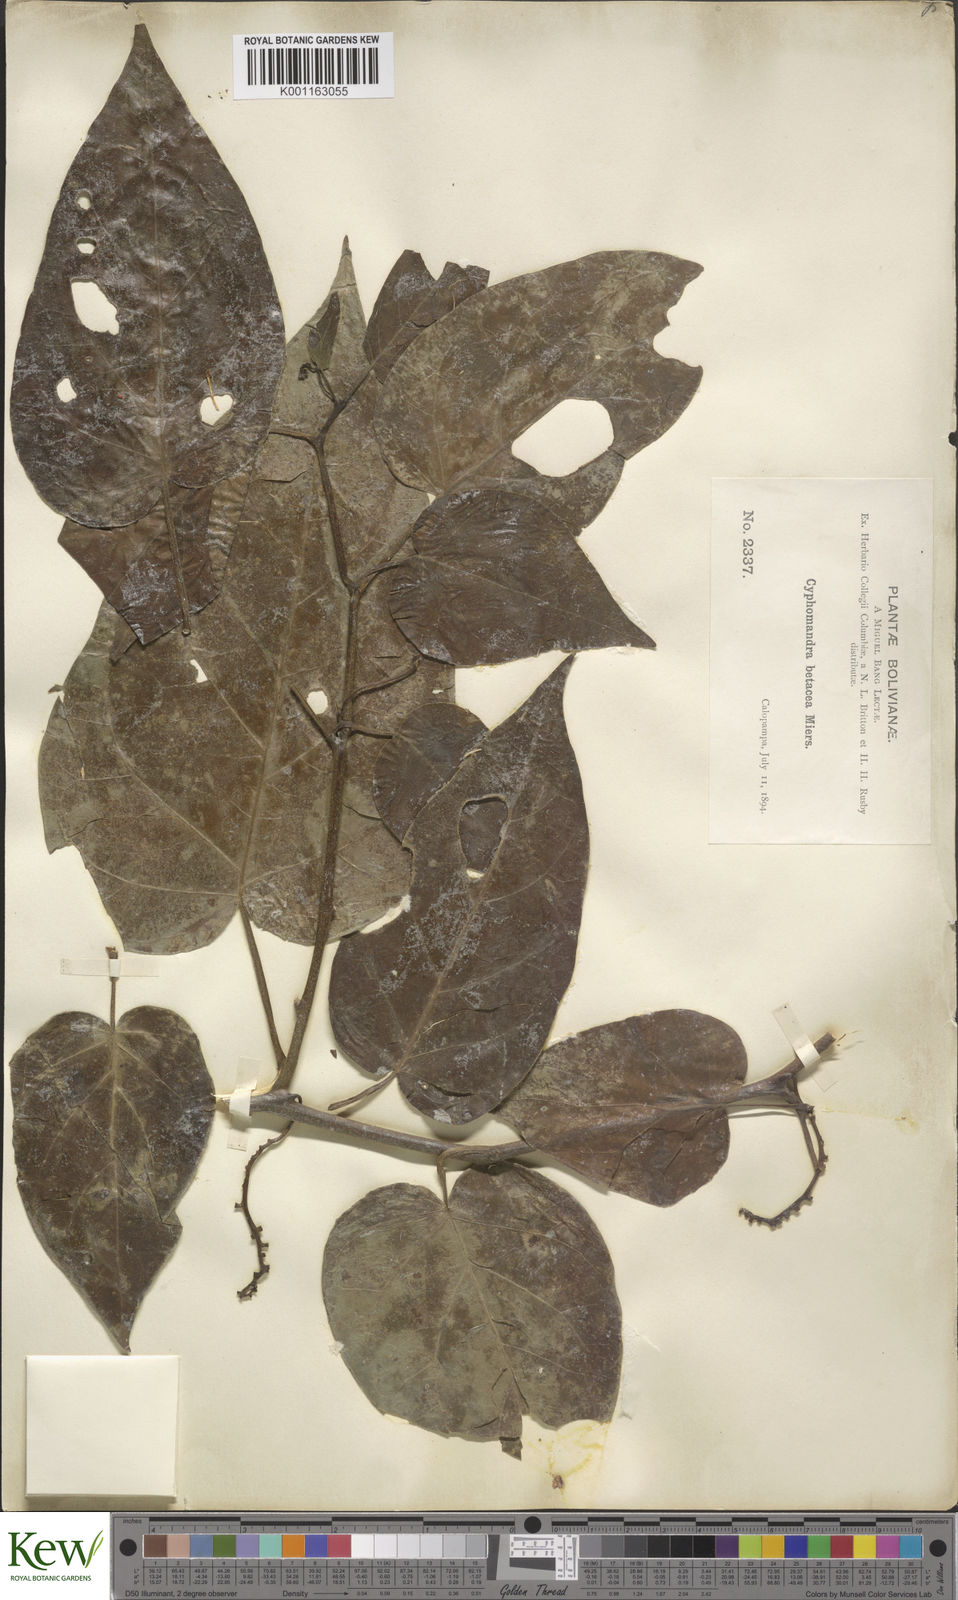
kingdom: Plantae
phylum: Tracheophyta
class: Magnoliopsida
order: Solanales
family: Solanaceae
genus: Solanum
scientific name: Solanum betaceum
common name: Tamarillo
